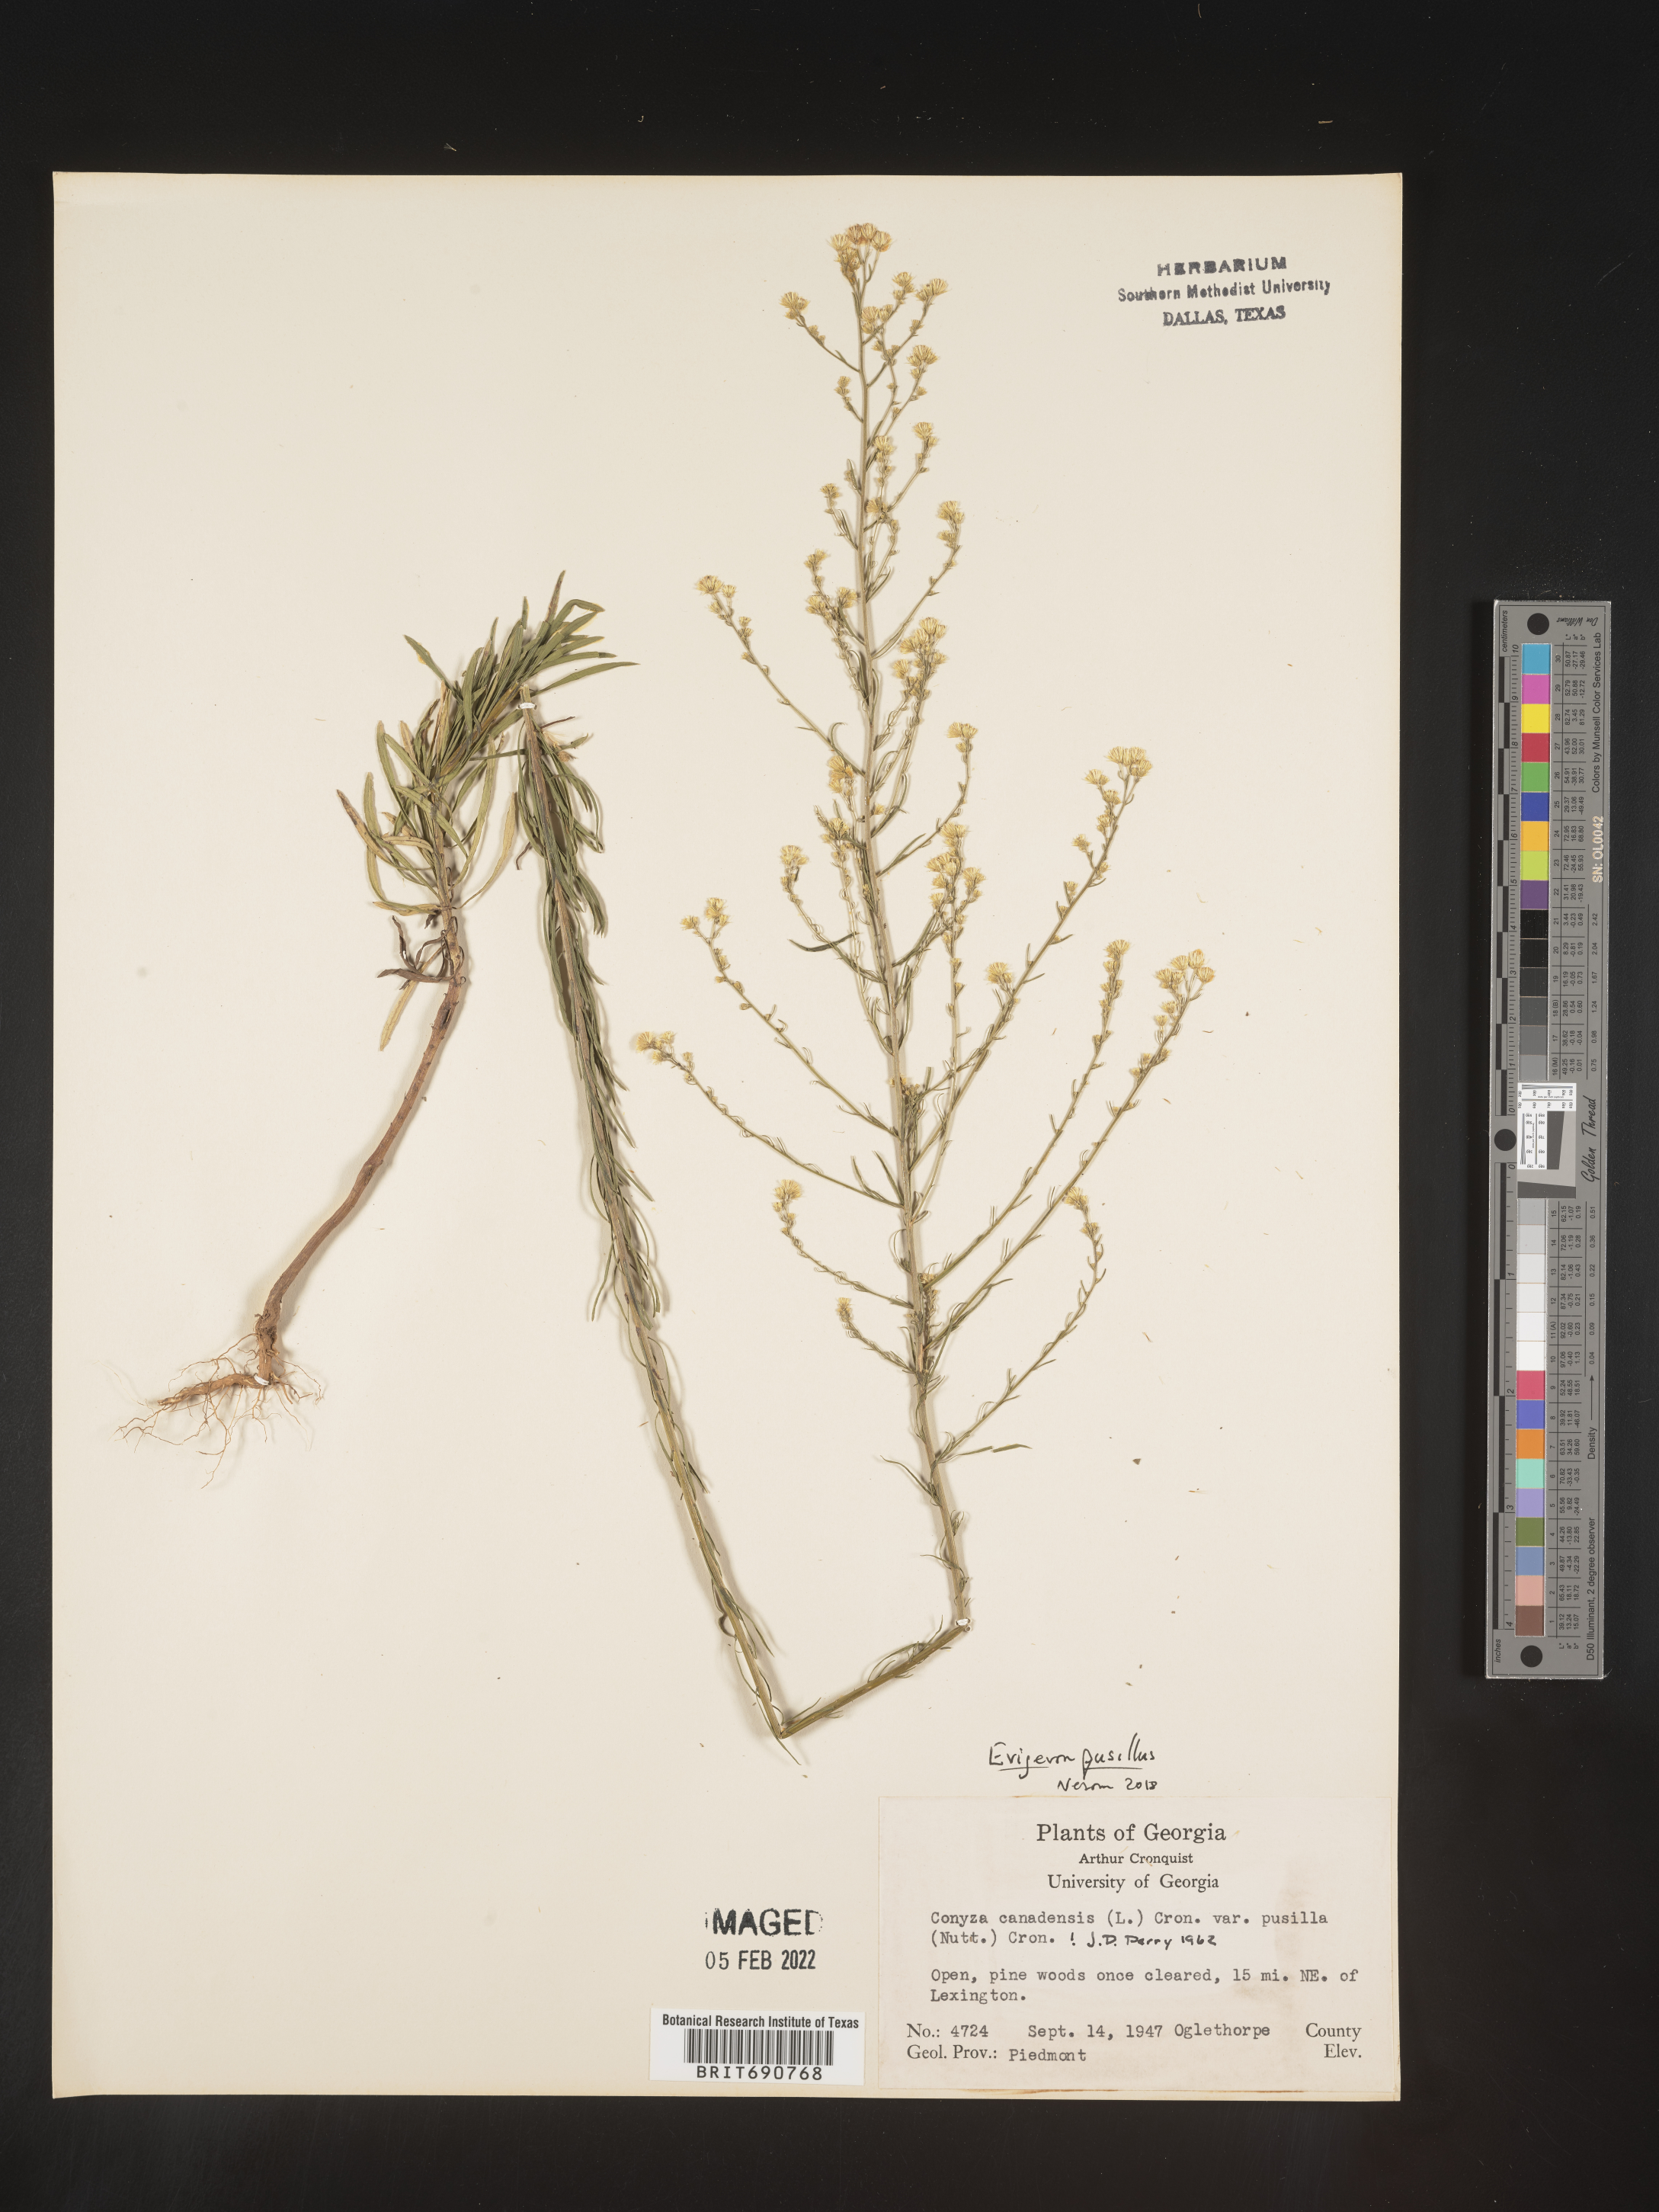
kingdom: Plantae
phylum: Tracheophyta
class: Magnoliopsida
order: Asterales
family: Asteraceae
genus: Erigeron
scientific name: Erigeron canadensis
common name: Canadian fleabane
